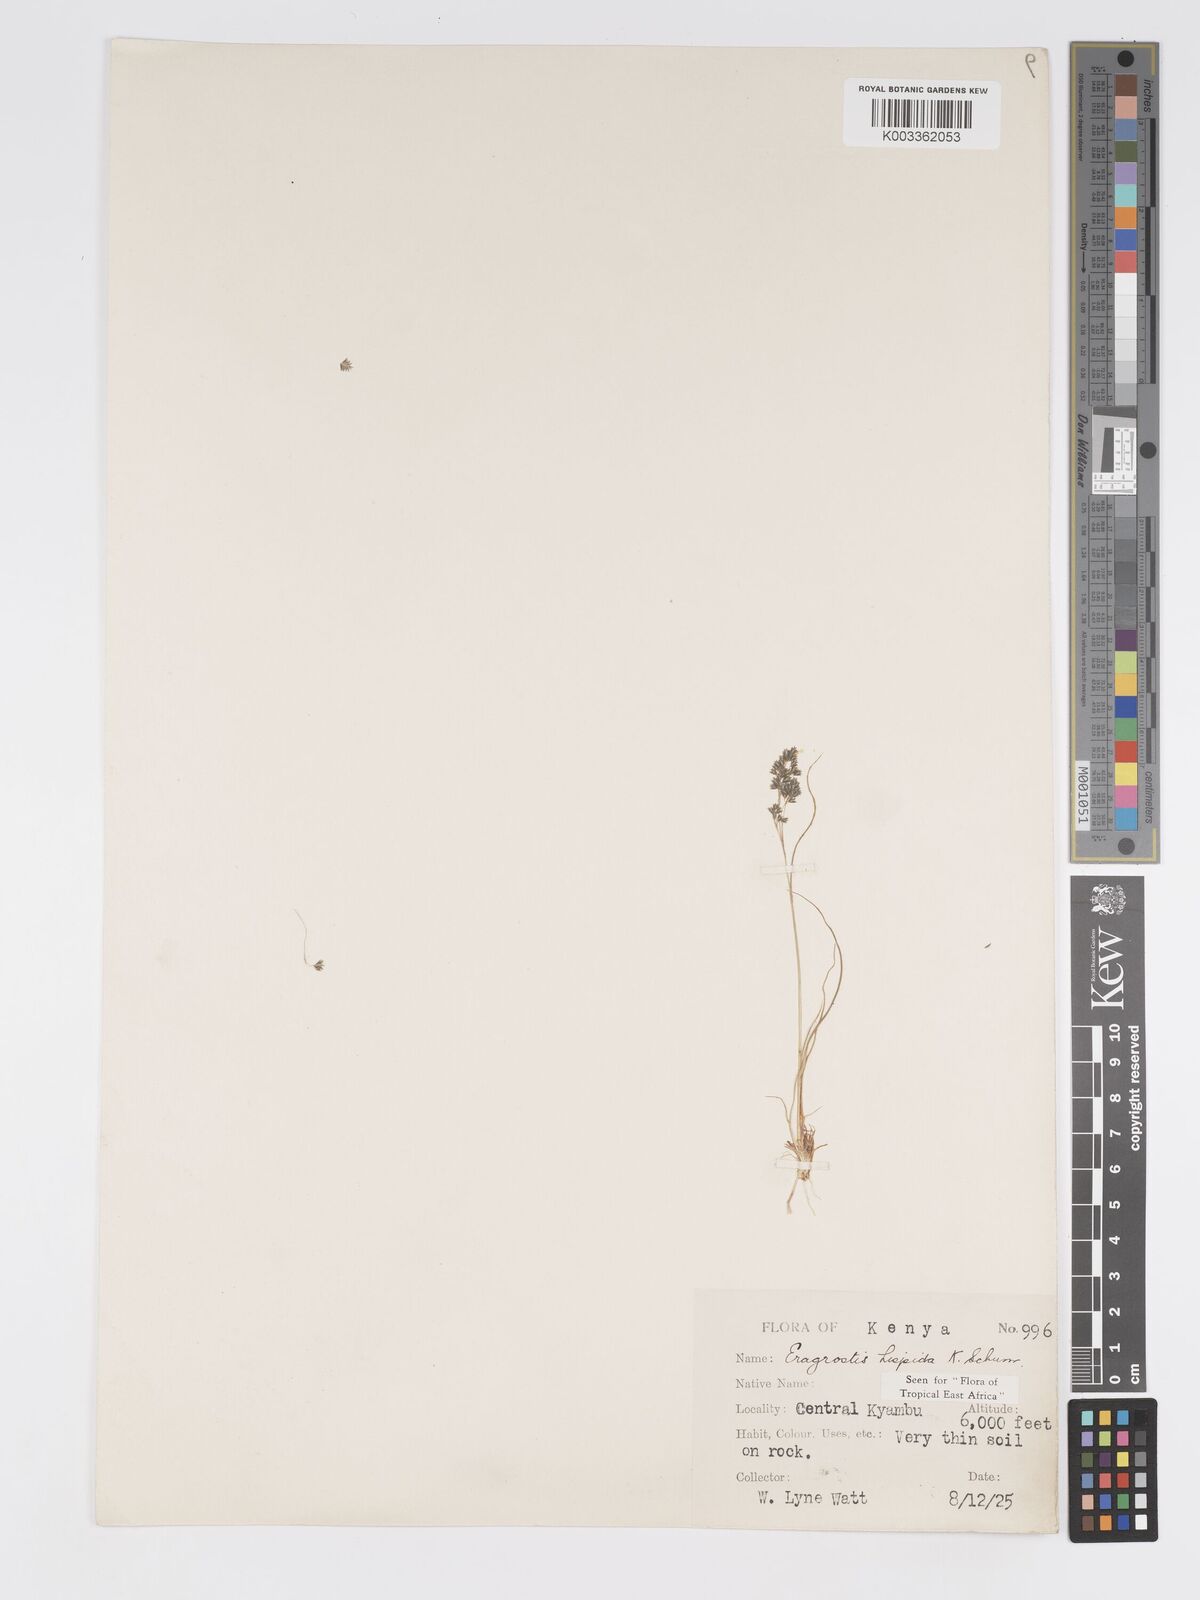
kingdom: Plantae
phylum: Tracheophyta
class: Liliopsida
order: Poales
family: Poaceae
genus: Eragrostis
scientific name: Eragrostis hispida
